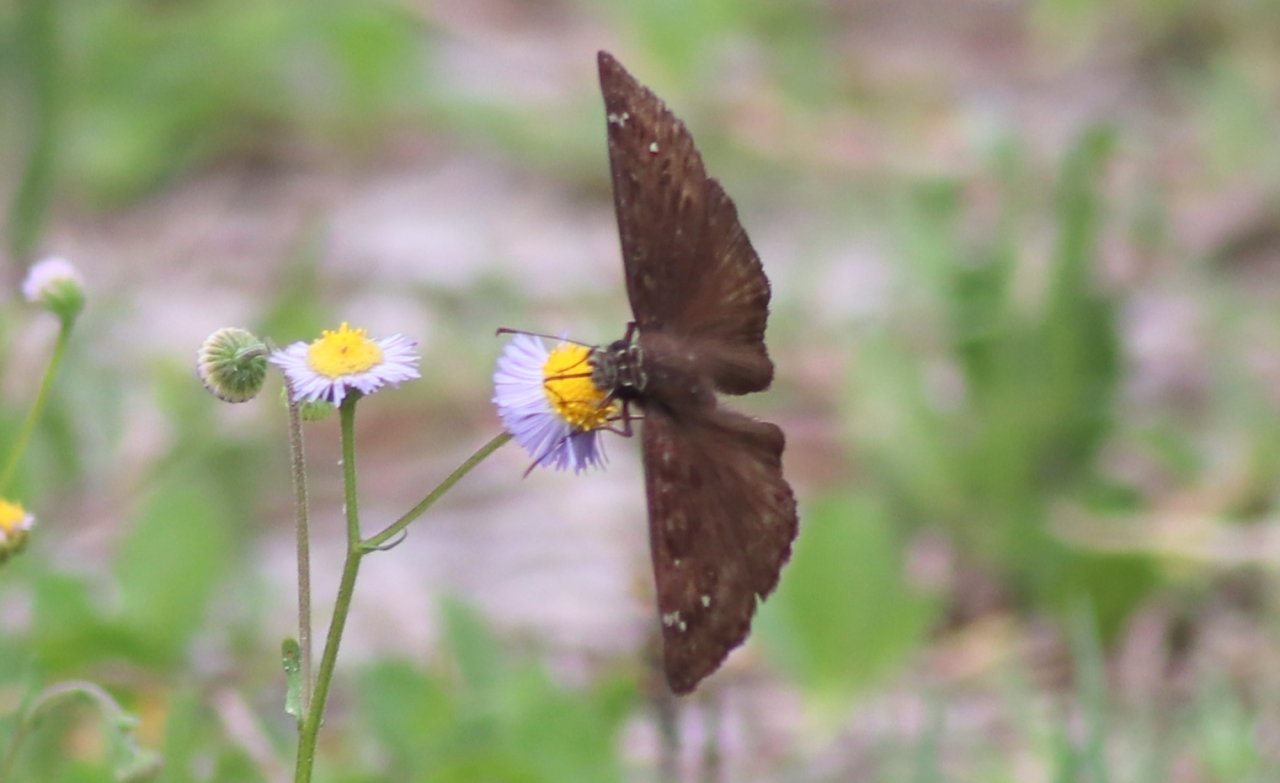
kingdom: Animalia
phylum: Arthropoda
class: Insecta
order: Lepidoptera
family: Hesperiidae
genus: Gesta
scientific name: Gesta
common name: Horace's Duskywing
